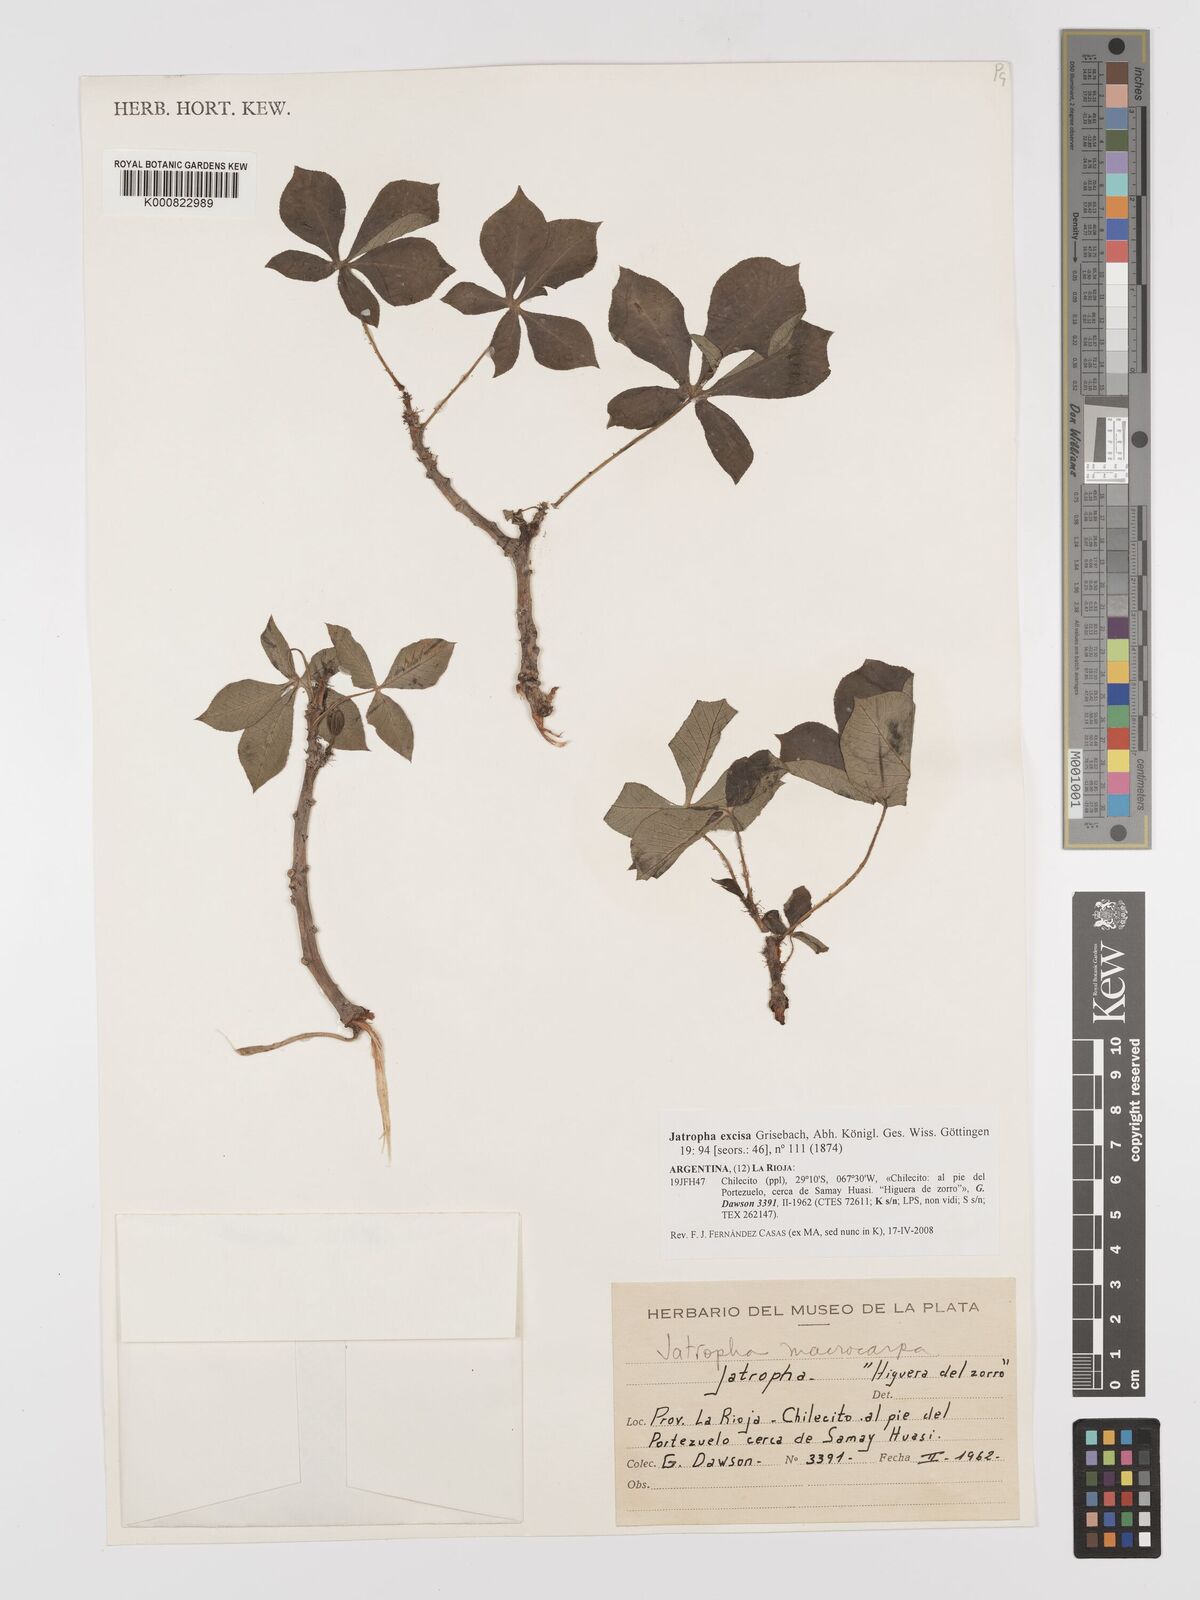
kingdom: Plantae
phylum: Tracheophyta
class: Magnoliopsida
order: Malpighiales
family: Euphorbiaceae
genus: Jatropha
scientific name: Jatropha excisa
